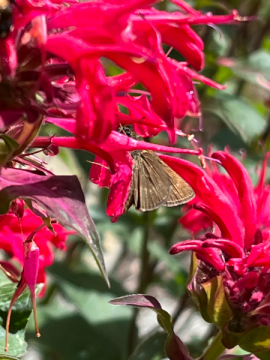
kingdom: Animalia
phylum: Arthropoda
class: Insecta
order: Lepidoptera
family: Hesperiidae
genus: Polites
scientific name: Polites themistocles
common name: Tawny-edged Skipper
